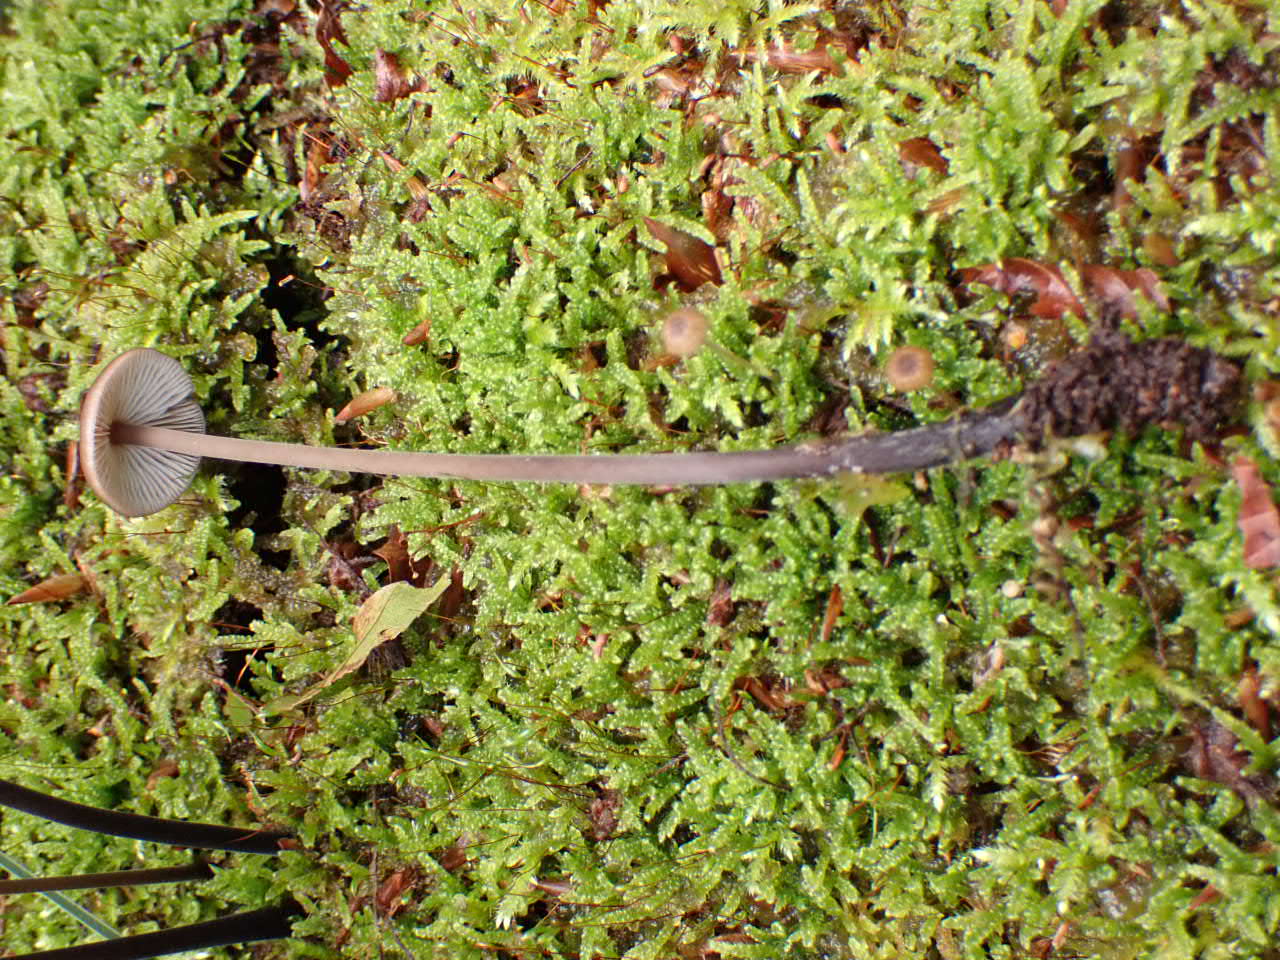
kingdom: Fungi
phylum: Basidiomycota
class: Agaricomycetes
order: Agaricales
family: Omphalotaceae
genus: Mycetinis
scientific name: Mycetinis alliaceus
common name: stor løghat
